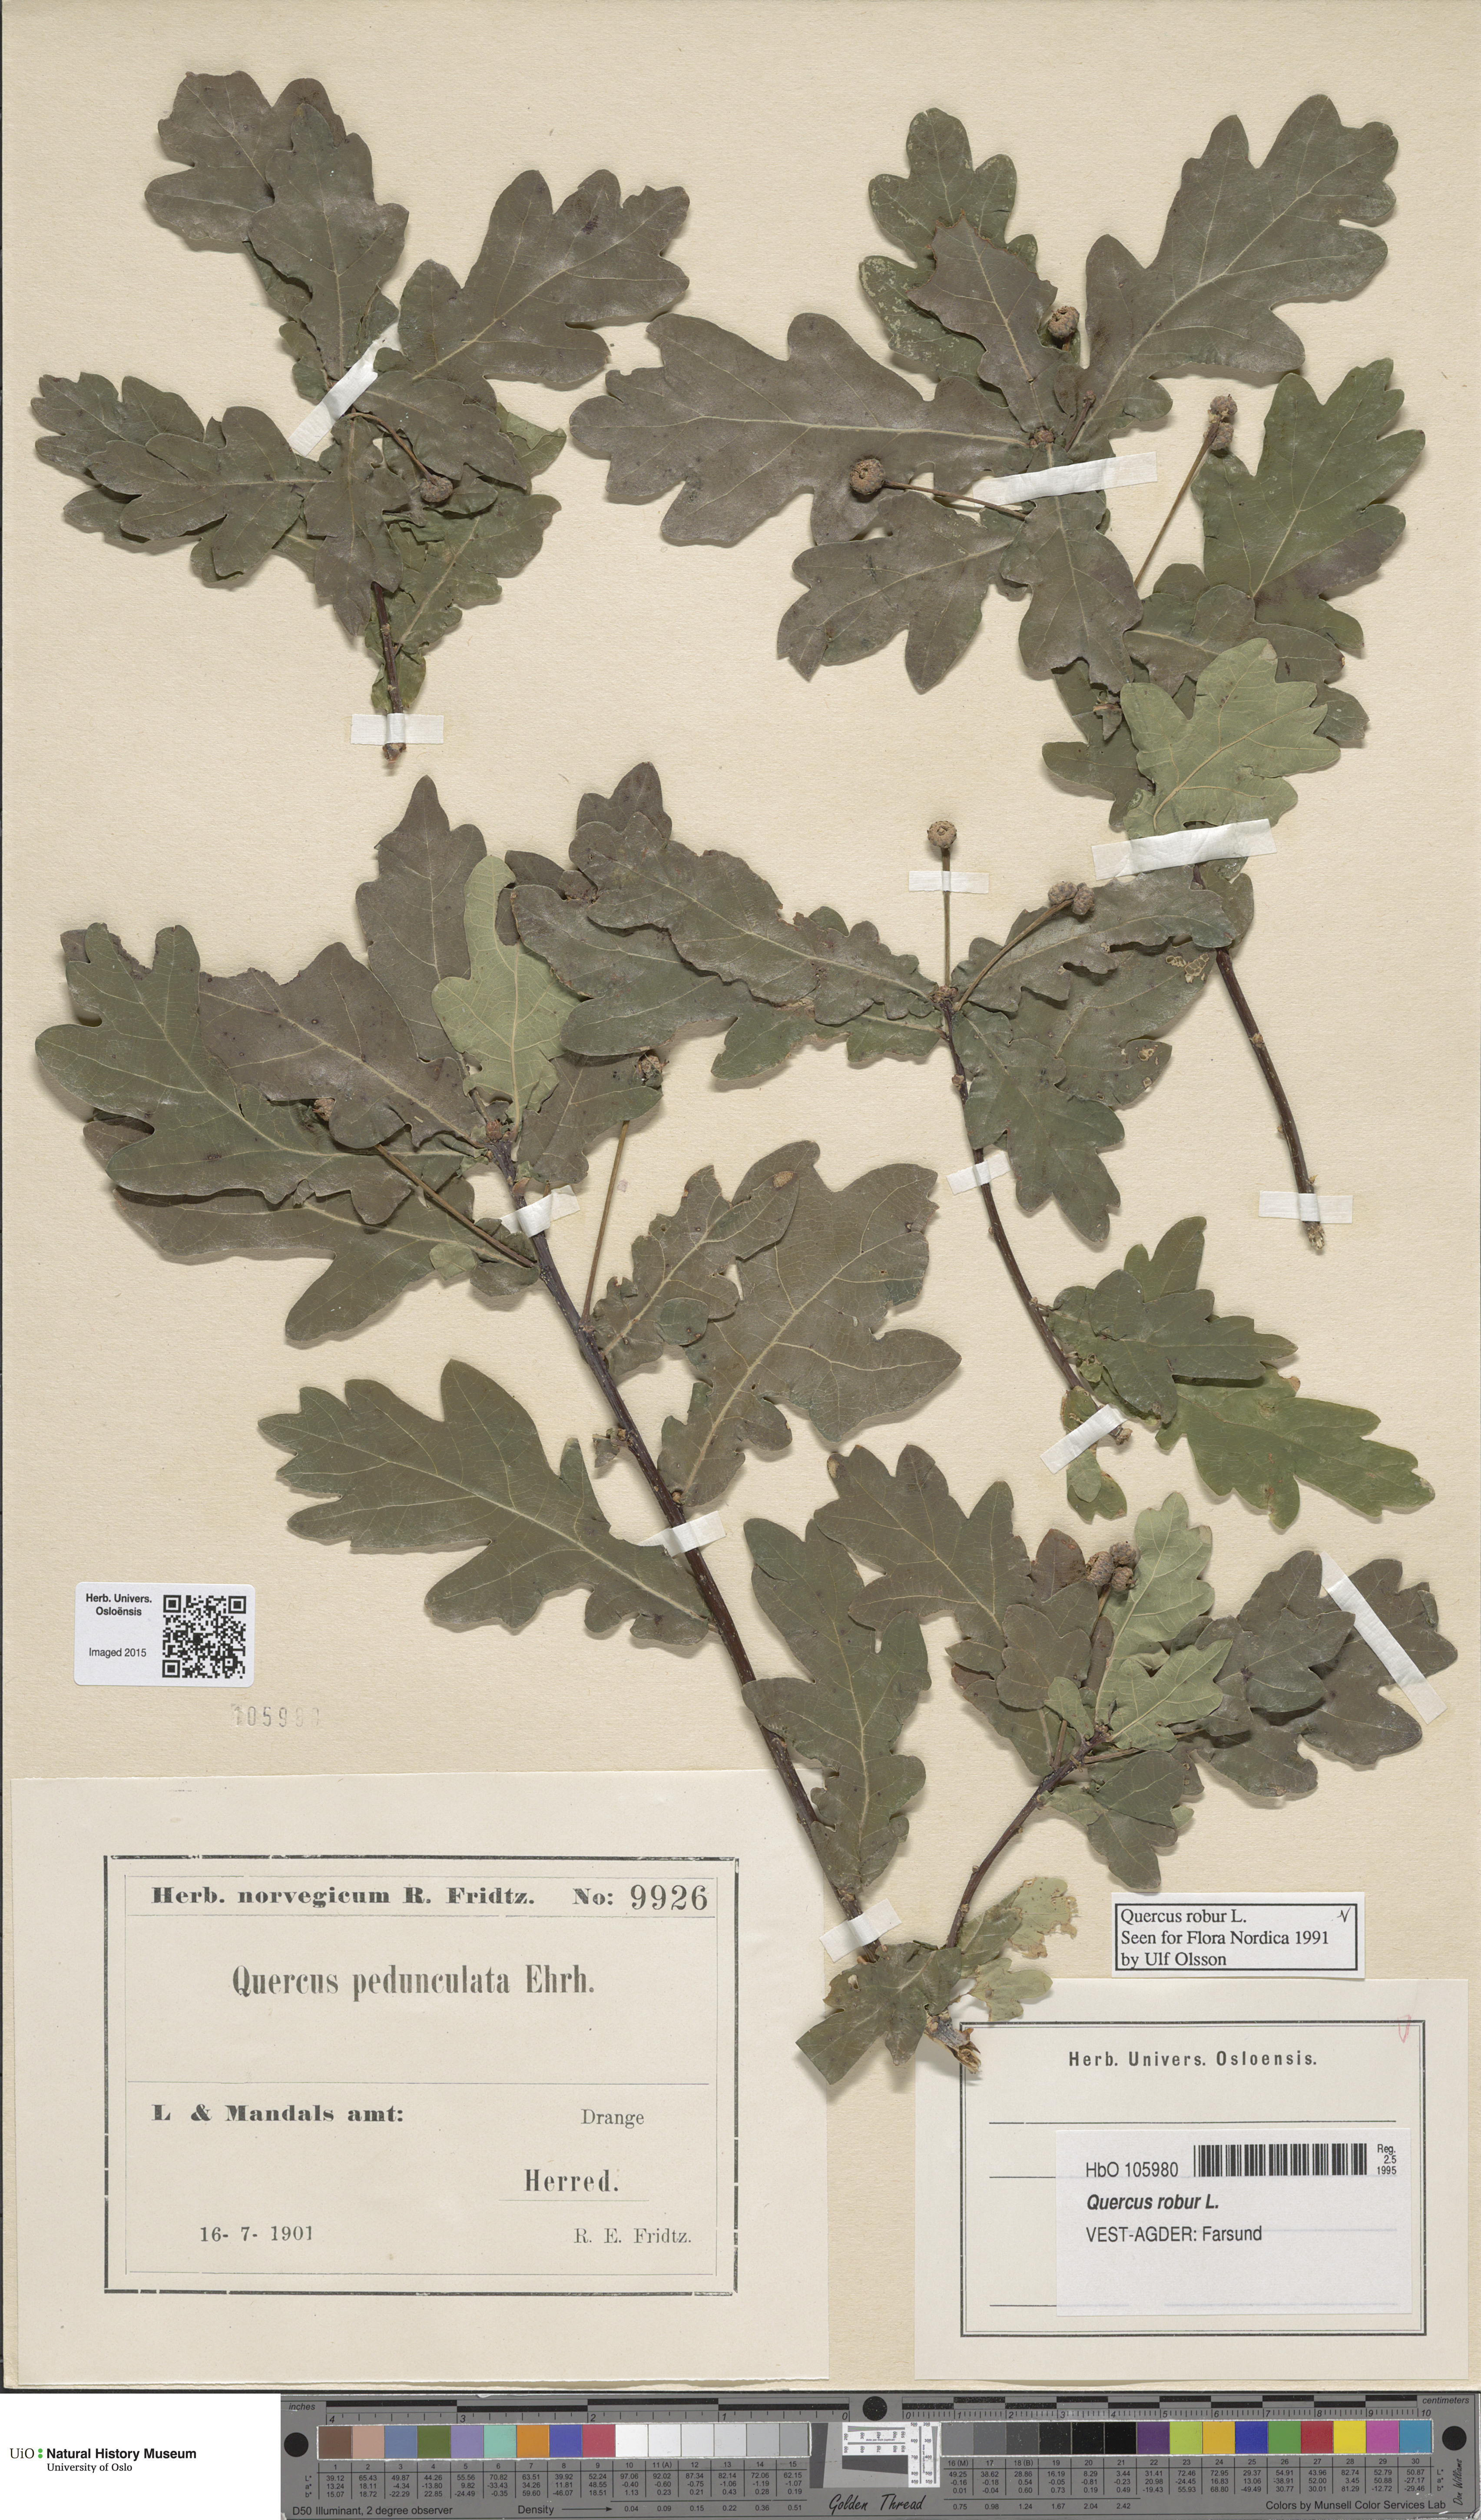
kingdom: Plantae
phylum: Tracheophyta
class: Magnoliopsida
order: Fagales
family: Fagaceae
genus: Quercus
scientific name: Quercus robur
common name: Pedunculate oak
